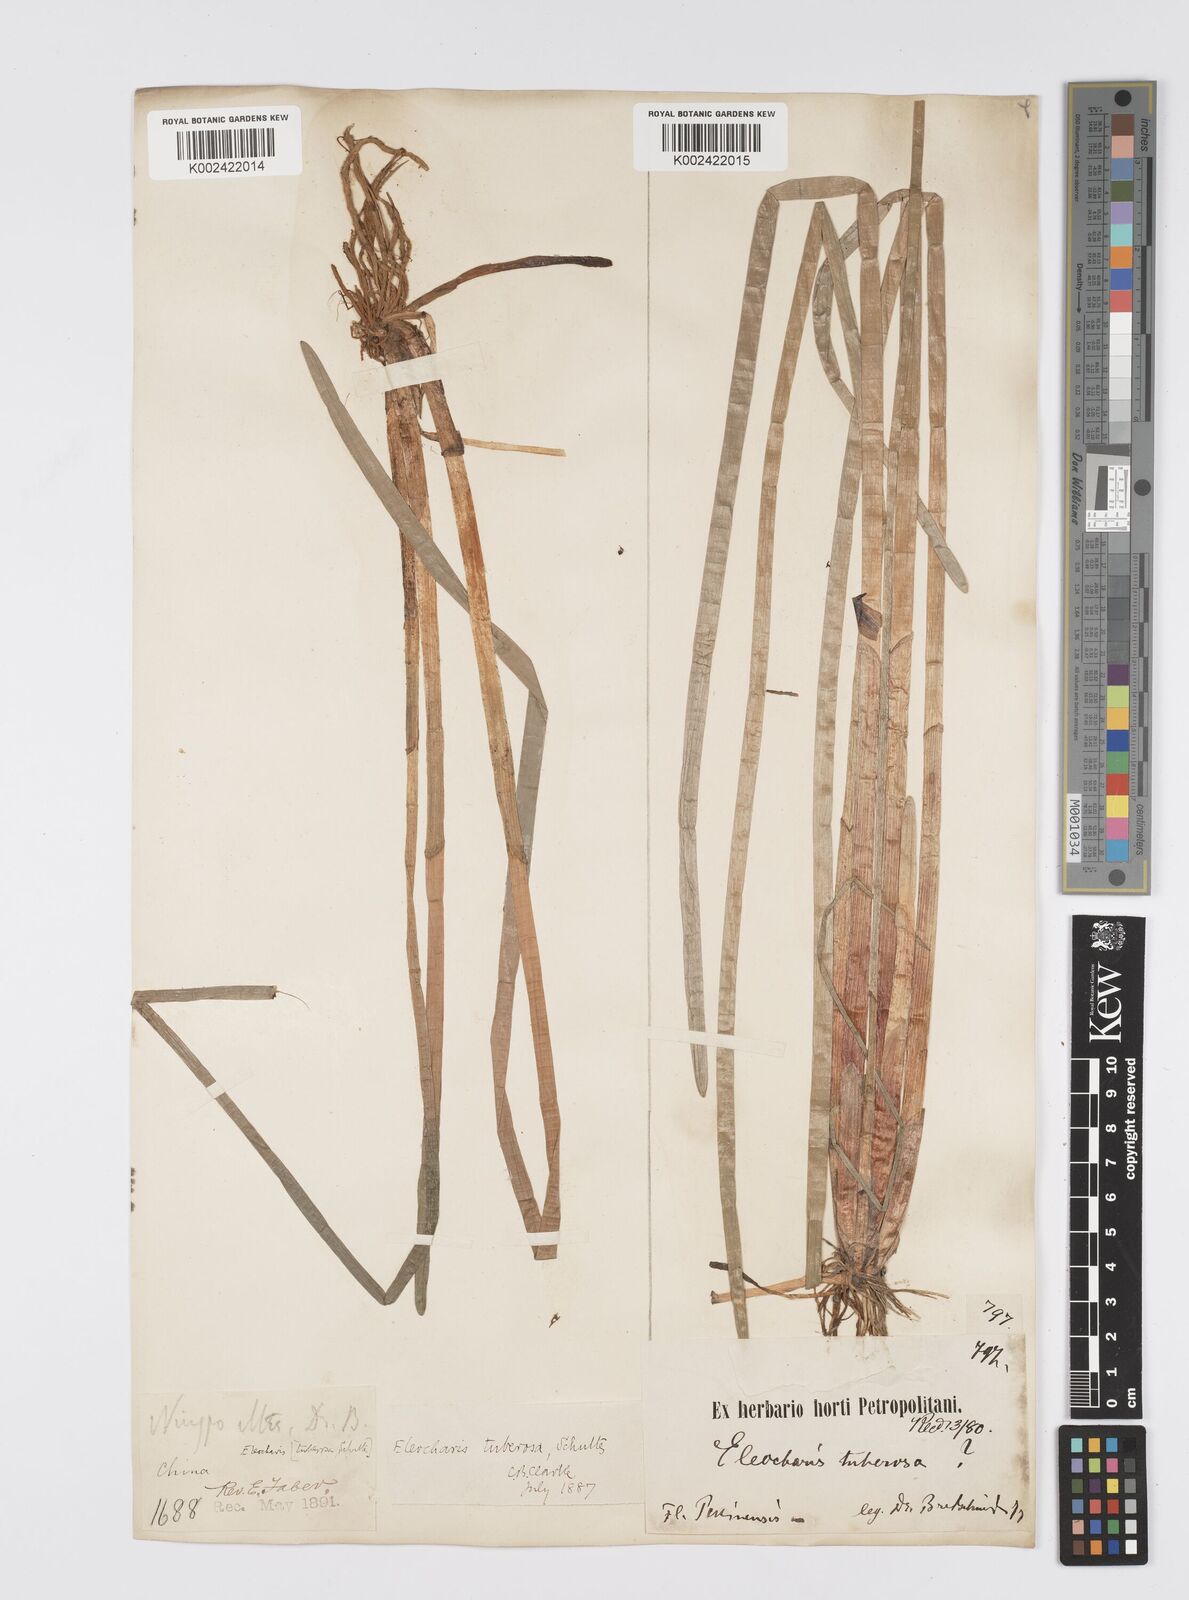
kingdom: Plantae
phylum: Tracheophyta
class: Liliopsida
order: Poales
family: Cyperaceae
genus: Eleocharis
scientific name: Eleocharis dulcis
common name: Chinese water chestnut
